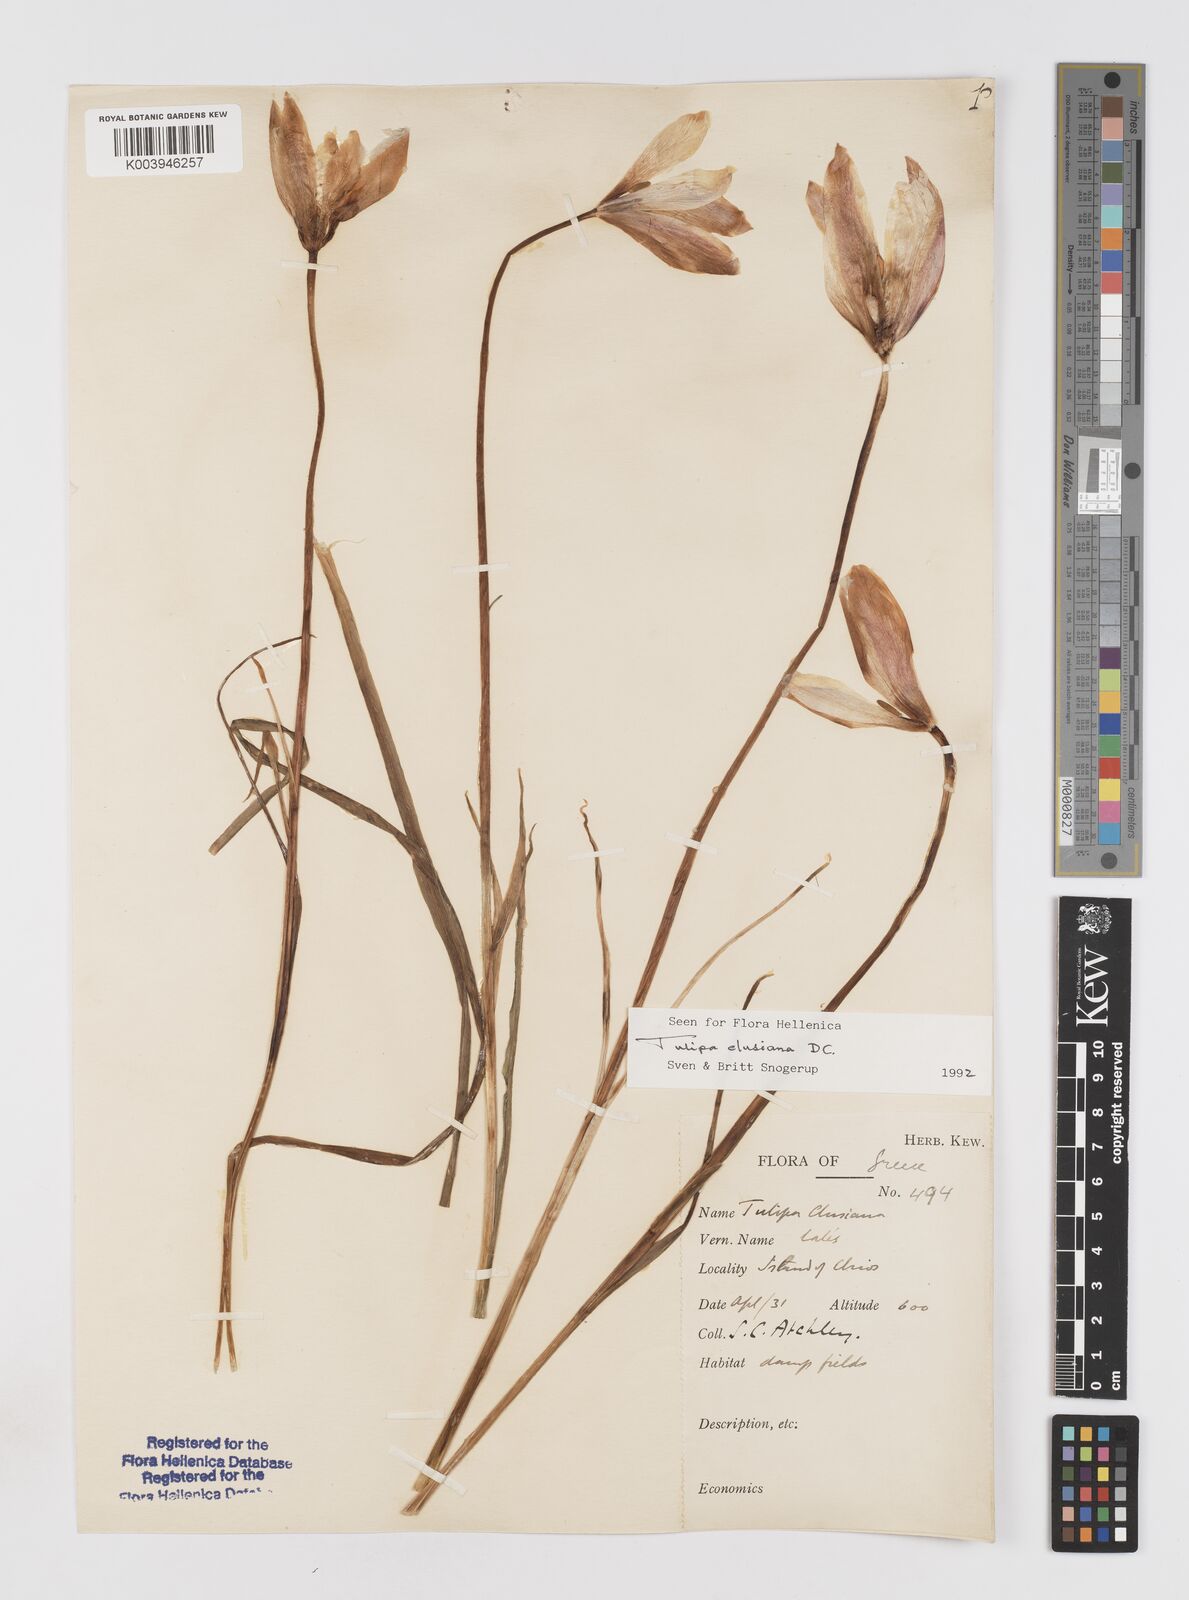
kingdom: Plantae
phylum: Tracheophyta
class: Liliopsida
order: Liliales
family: Liliaceae
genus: Tulipa
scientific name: Tulipa clusiana
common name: Lady tulip
